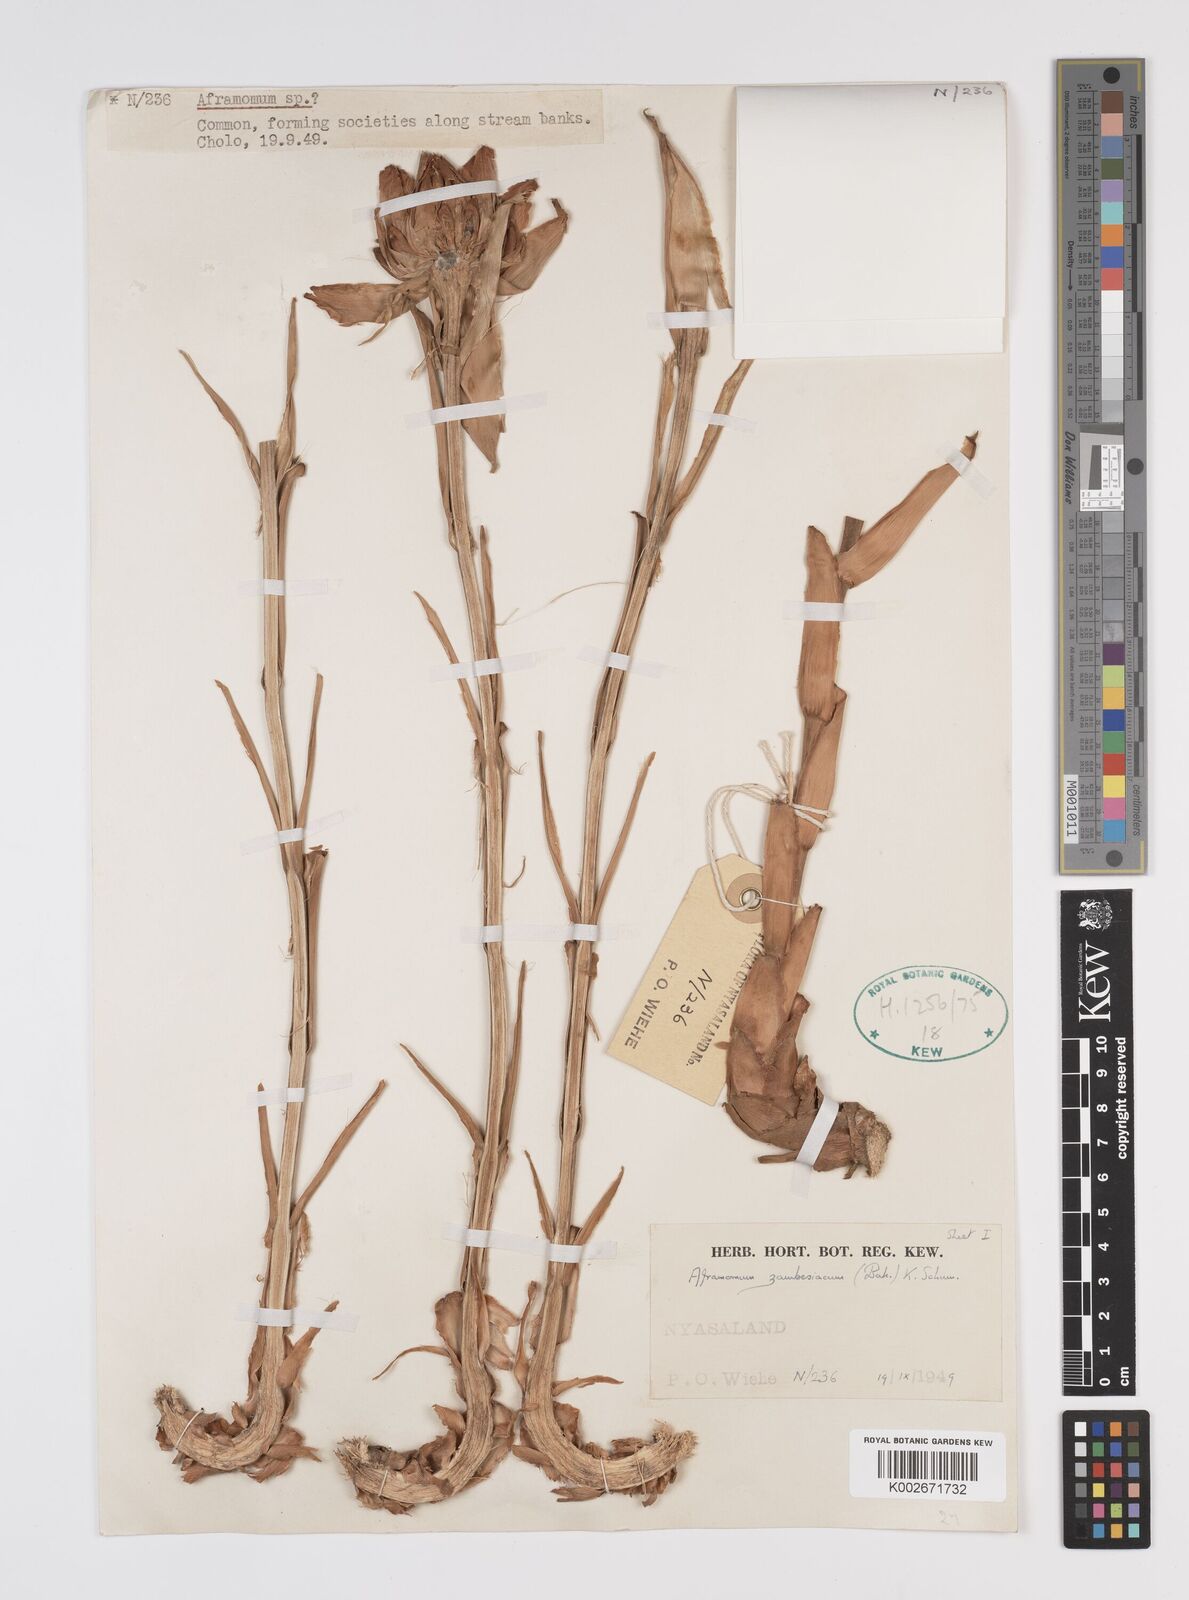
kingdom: Plantae
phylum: Tracheophyta
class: Liliopsida
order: Zingiberales
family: Zingiberaceae
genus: Aframomum
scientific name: Aframomum zambesiacum
